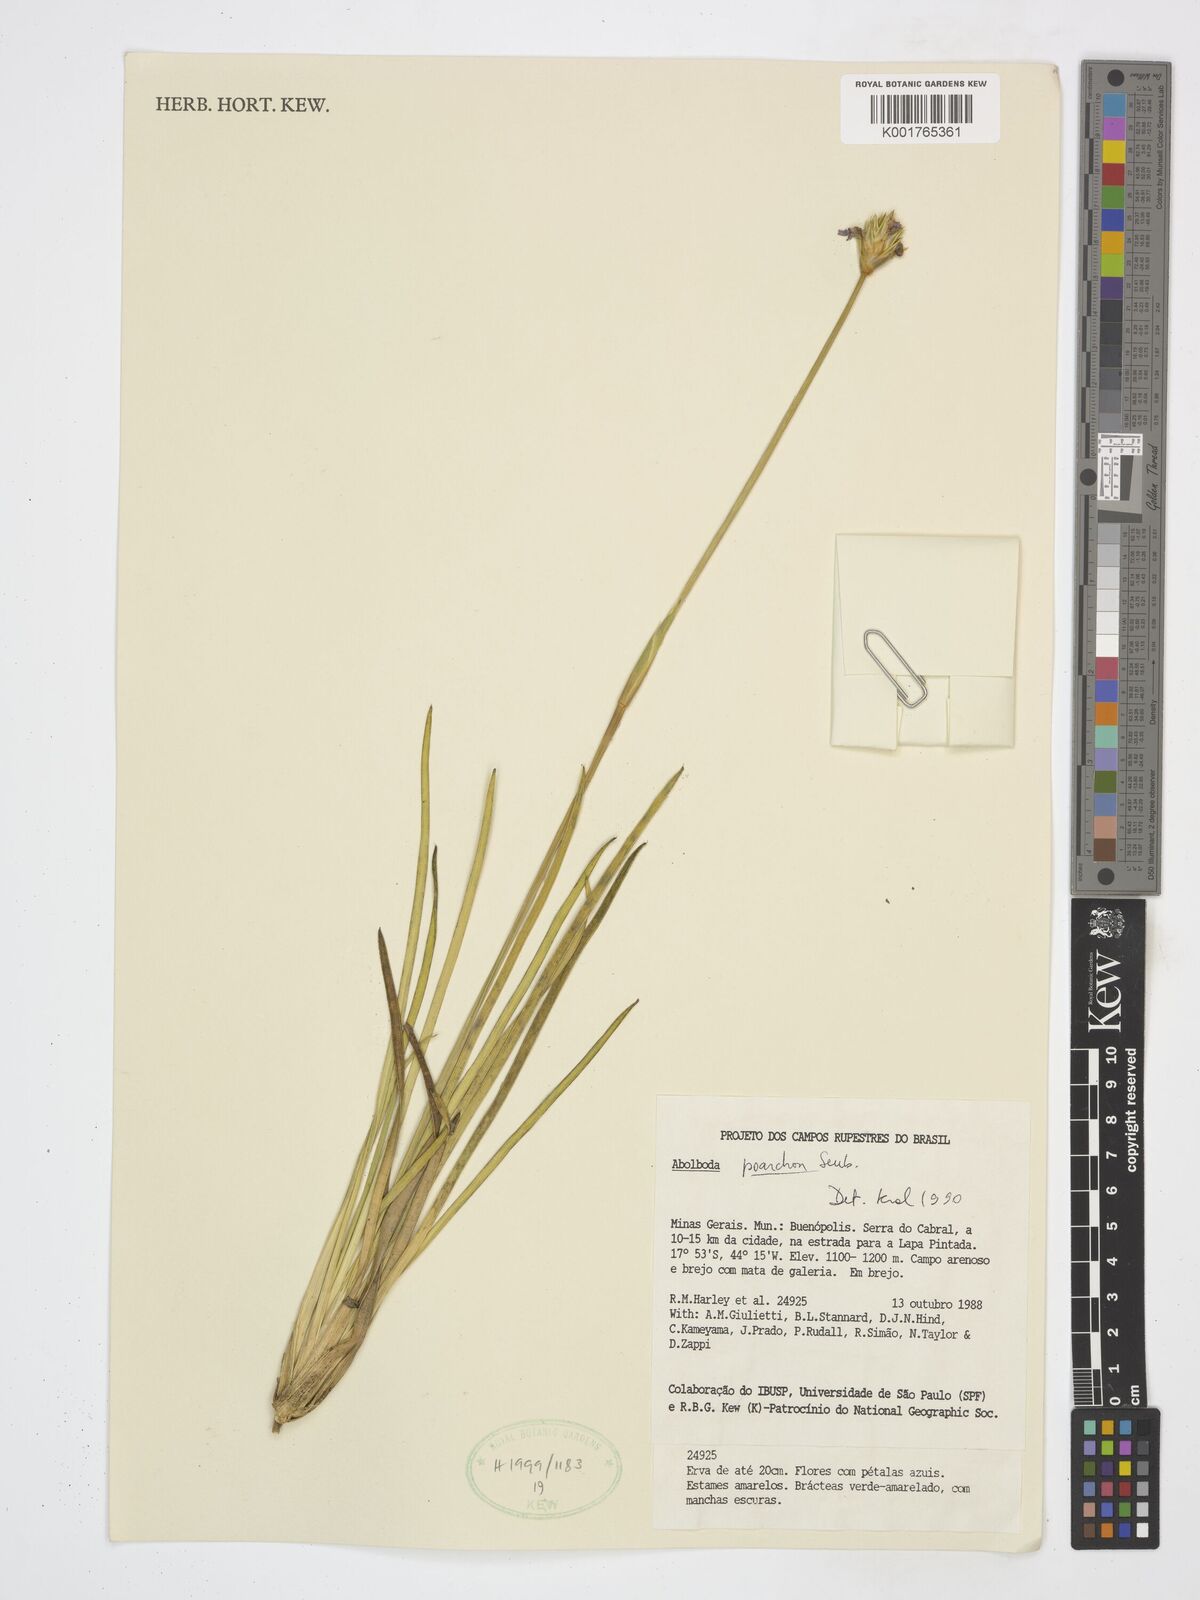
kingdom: Plantae
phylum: Tracheophyta
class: Liliopsida
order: Poales
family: Xyridaceae
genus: Abolboda
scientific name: Abolboda poarchon
